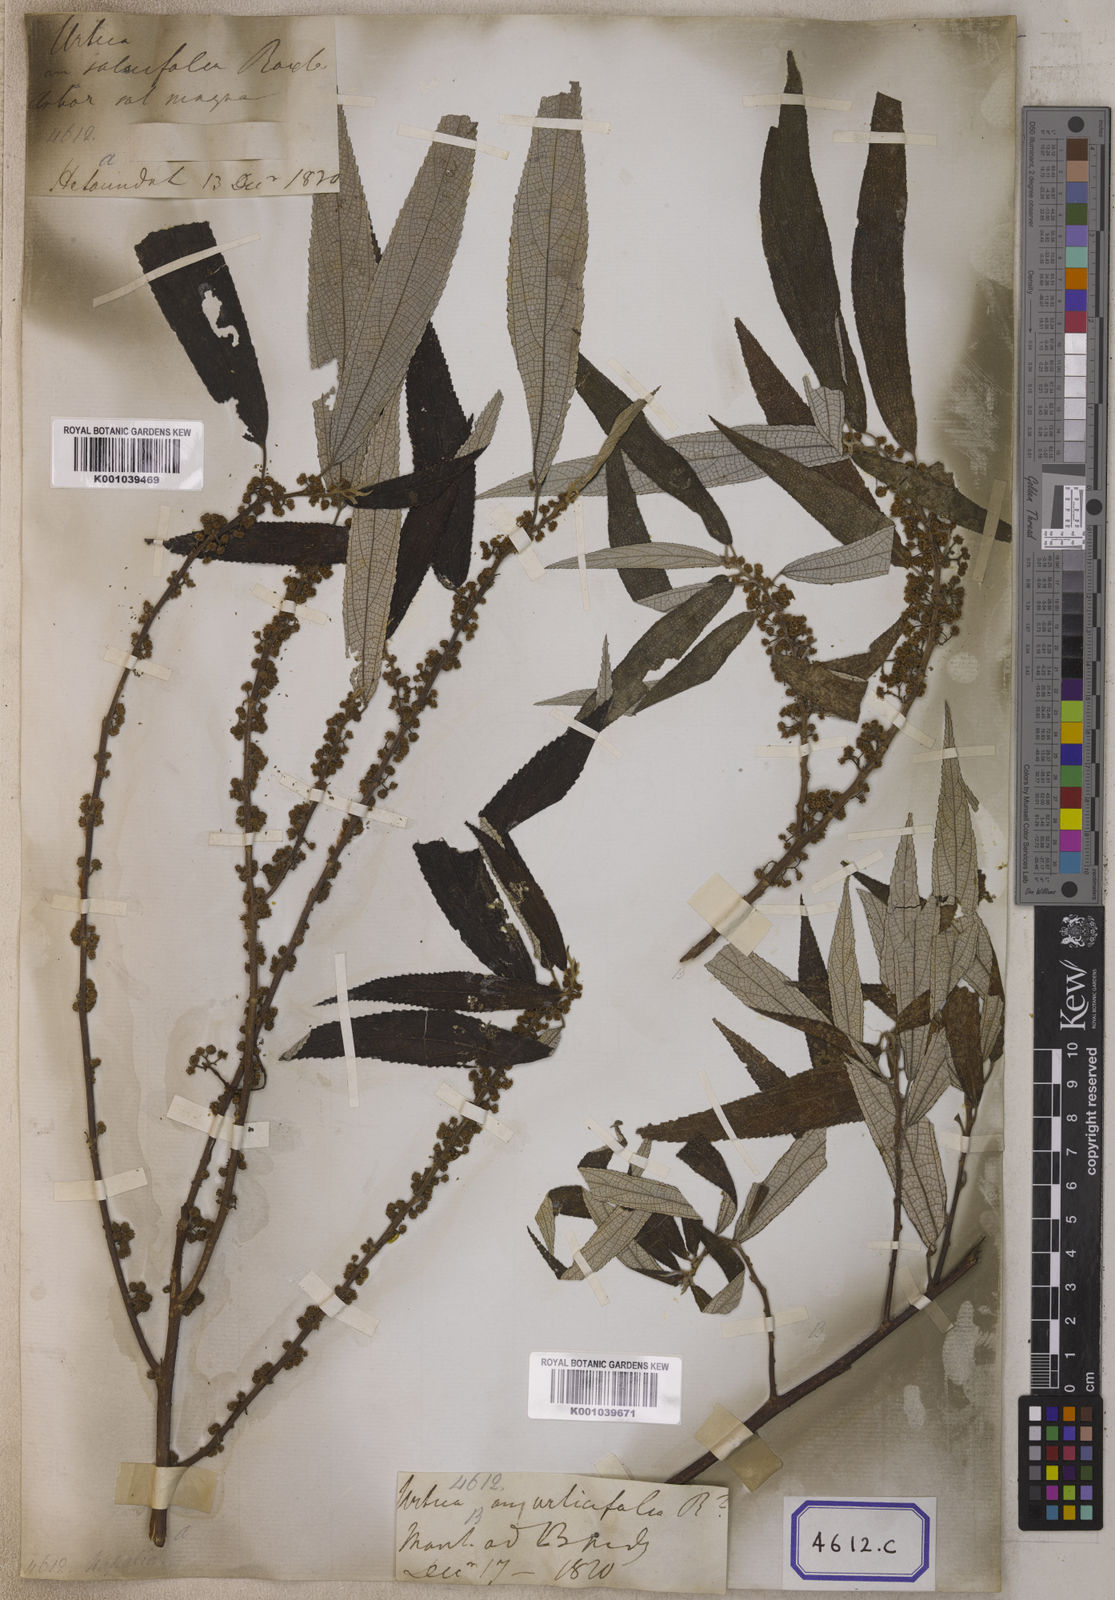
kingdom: Plantae
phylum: Tracheophyta
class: Magnoliopsida
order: Rosales
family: Urticaceae
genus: Debregeasia
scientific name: Debregeasia longifolia
